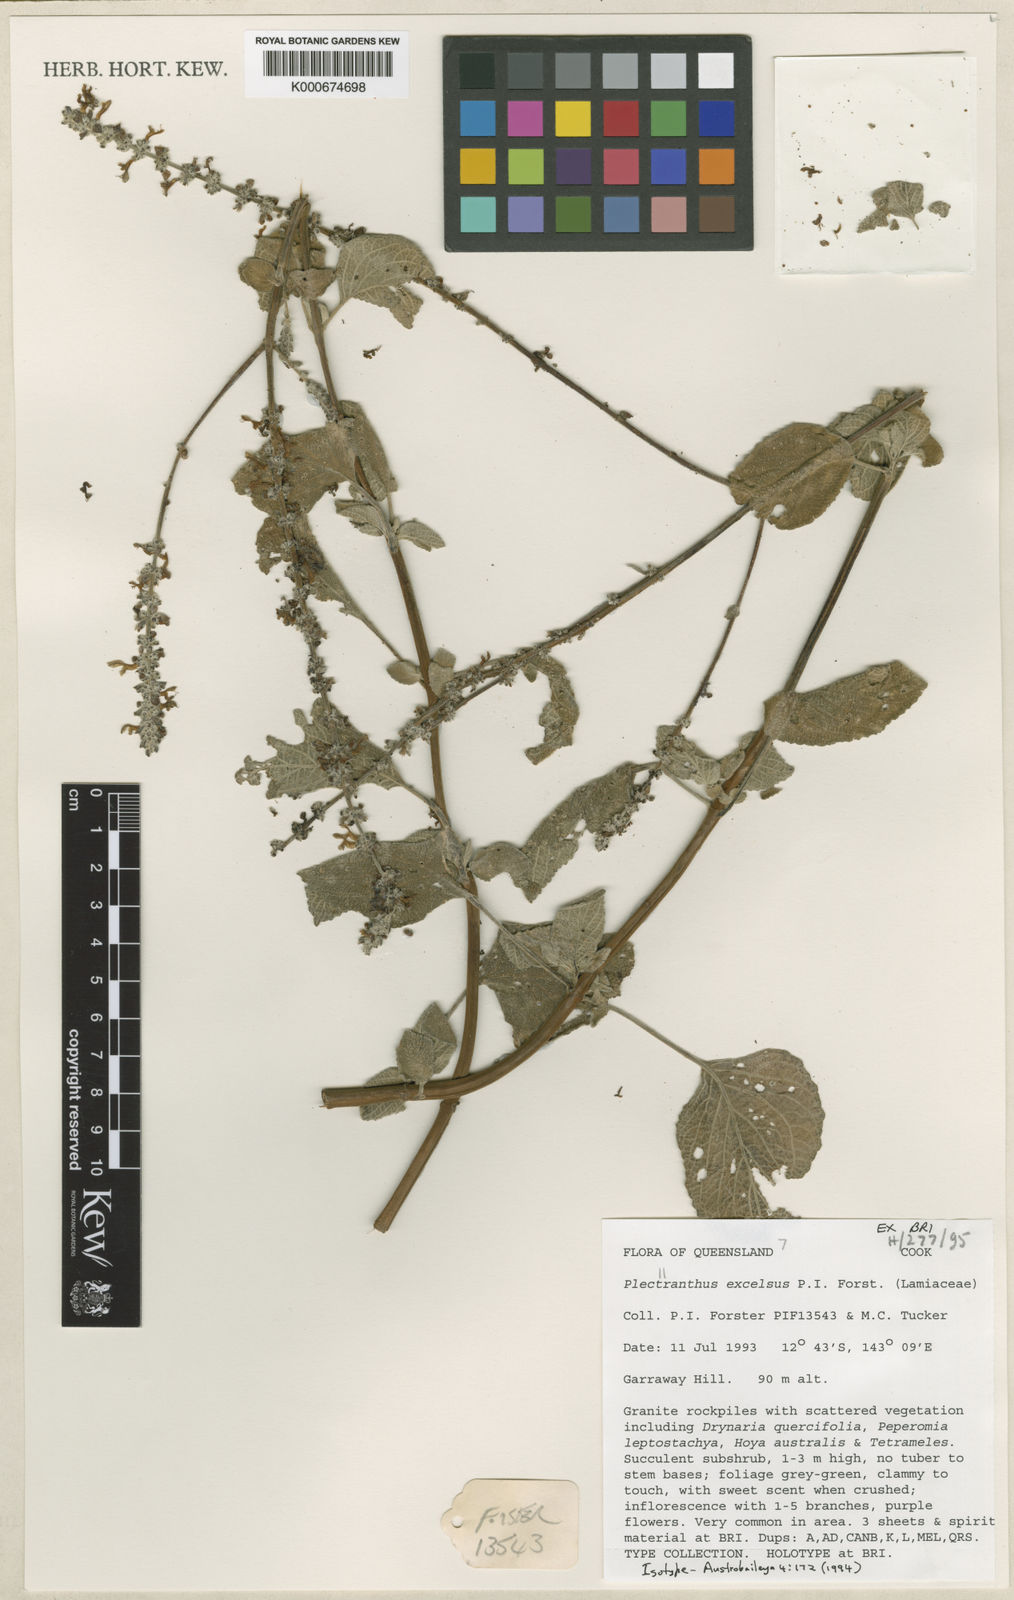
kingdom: Plantae
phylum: Tracheophyta
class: Magnoliopsida
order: Lamiales
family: Lamiaceae
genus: Coleus
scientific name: Coleus excelsus
